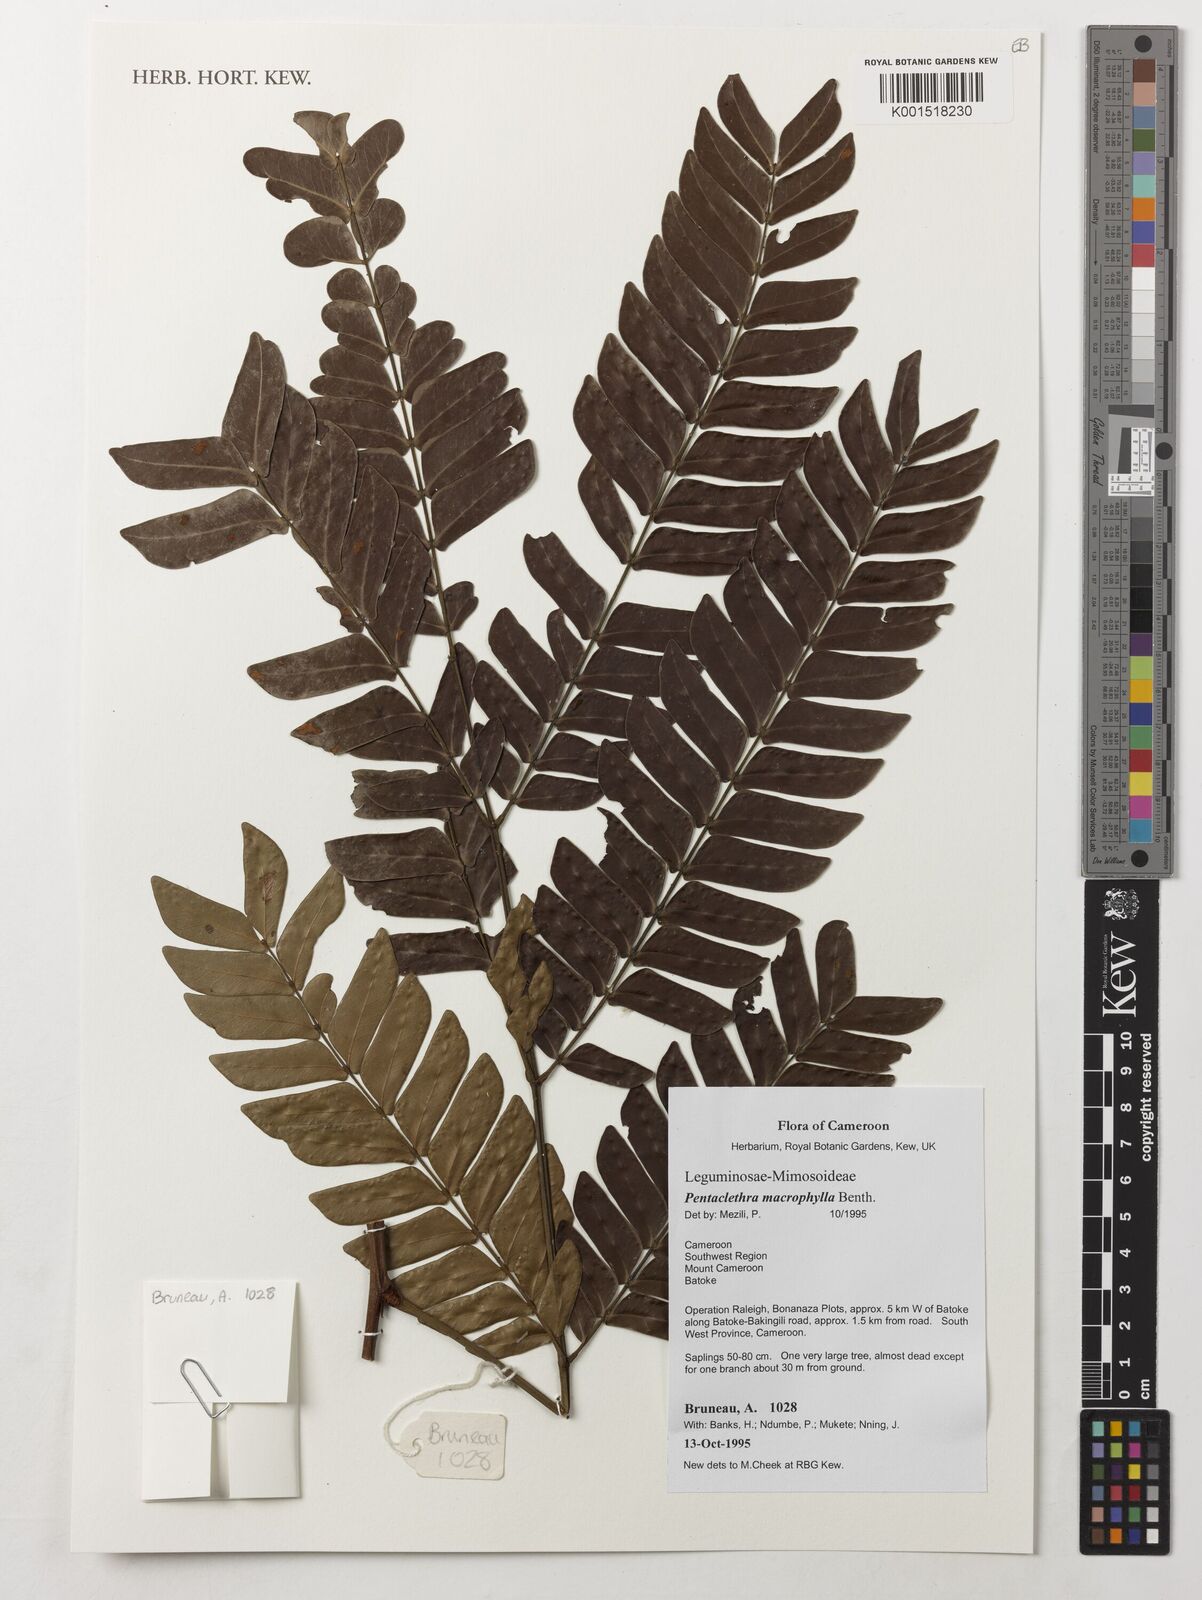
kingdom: Plantae
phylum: Tracheophyta
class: Magnoliopsida
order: Fabales
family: Fabaceae
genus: Pentaclethra
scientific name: Pentaclethra macrophylla
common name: African oil bean
